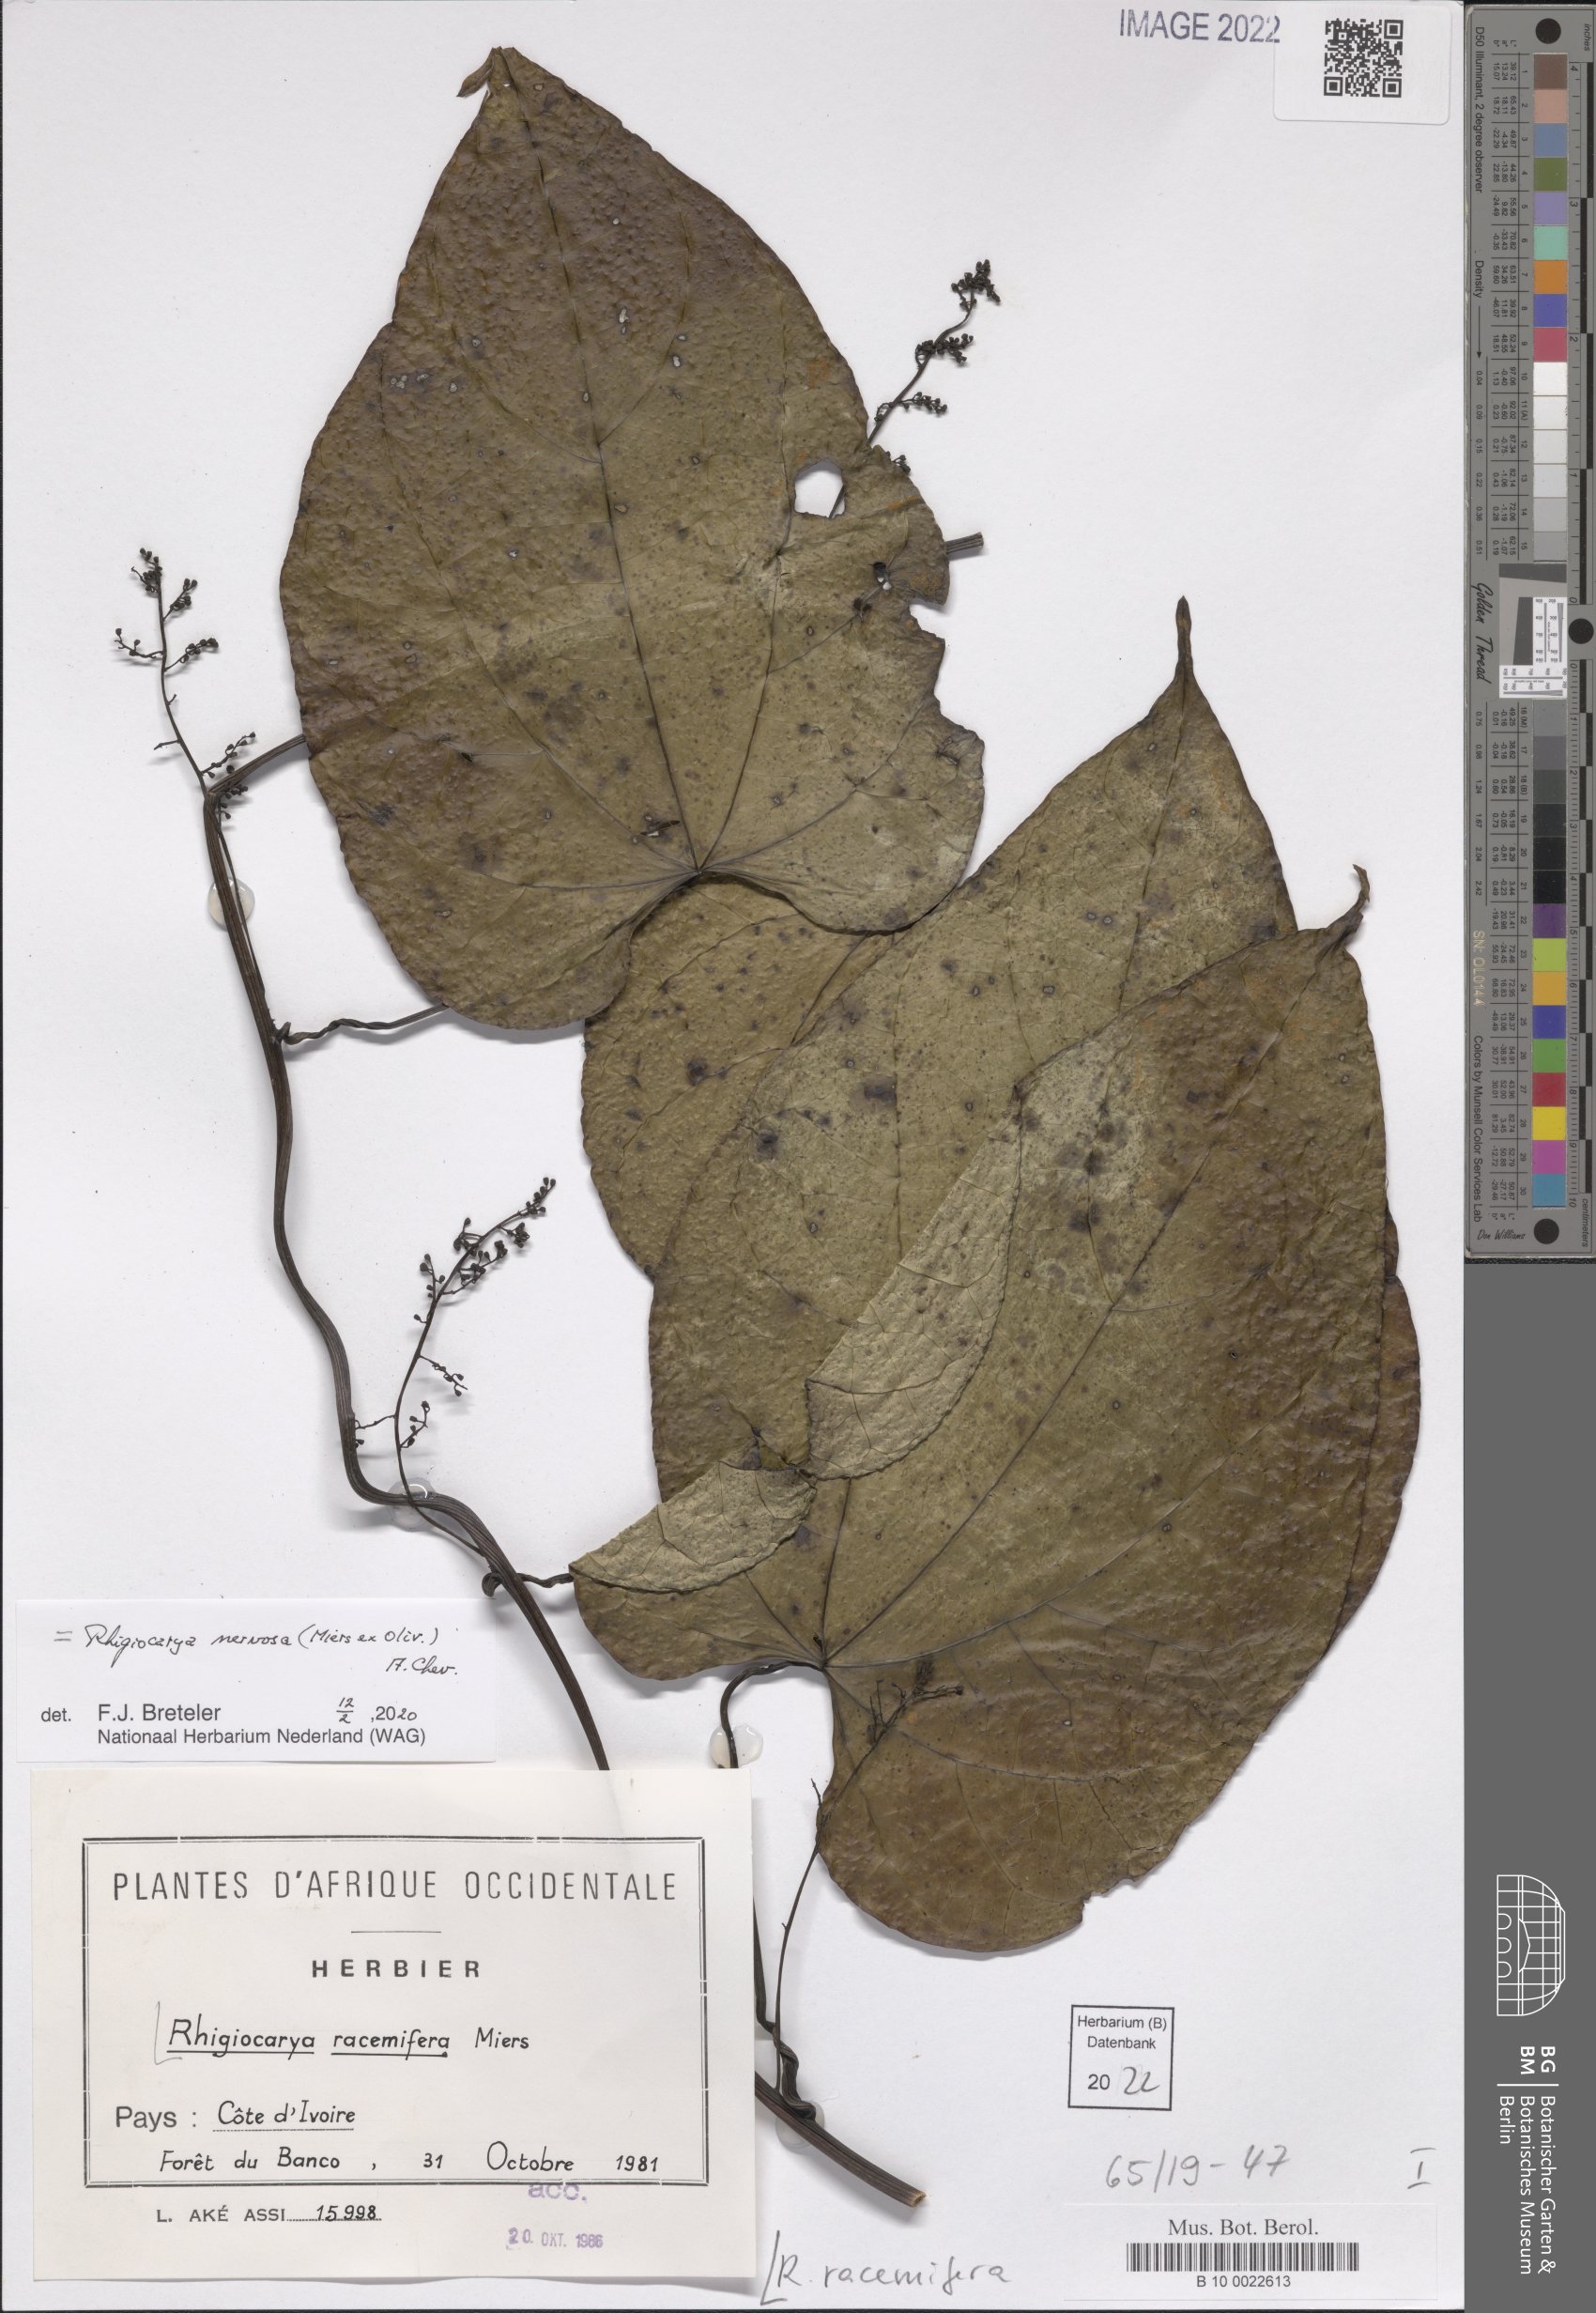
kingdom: Plantae
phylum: Tracheophyta
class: Magnoliopsida
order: Ranunculales
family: Menispermaceae
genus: Rhigiocarya
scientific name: Rhigiocarya racemifera
